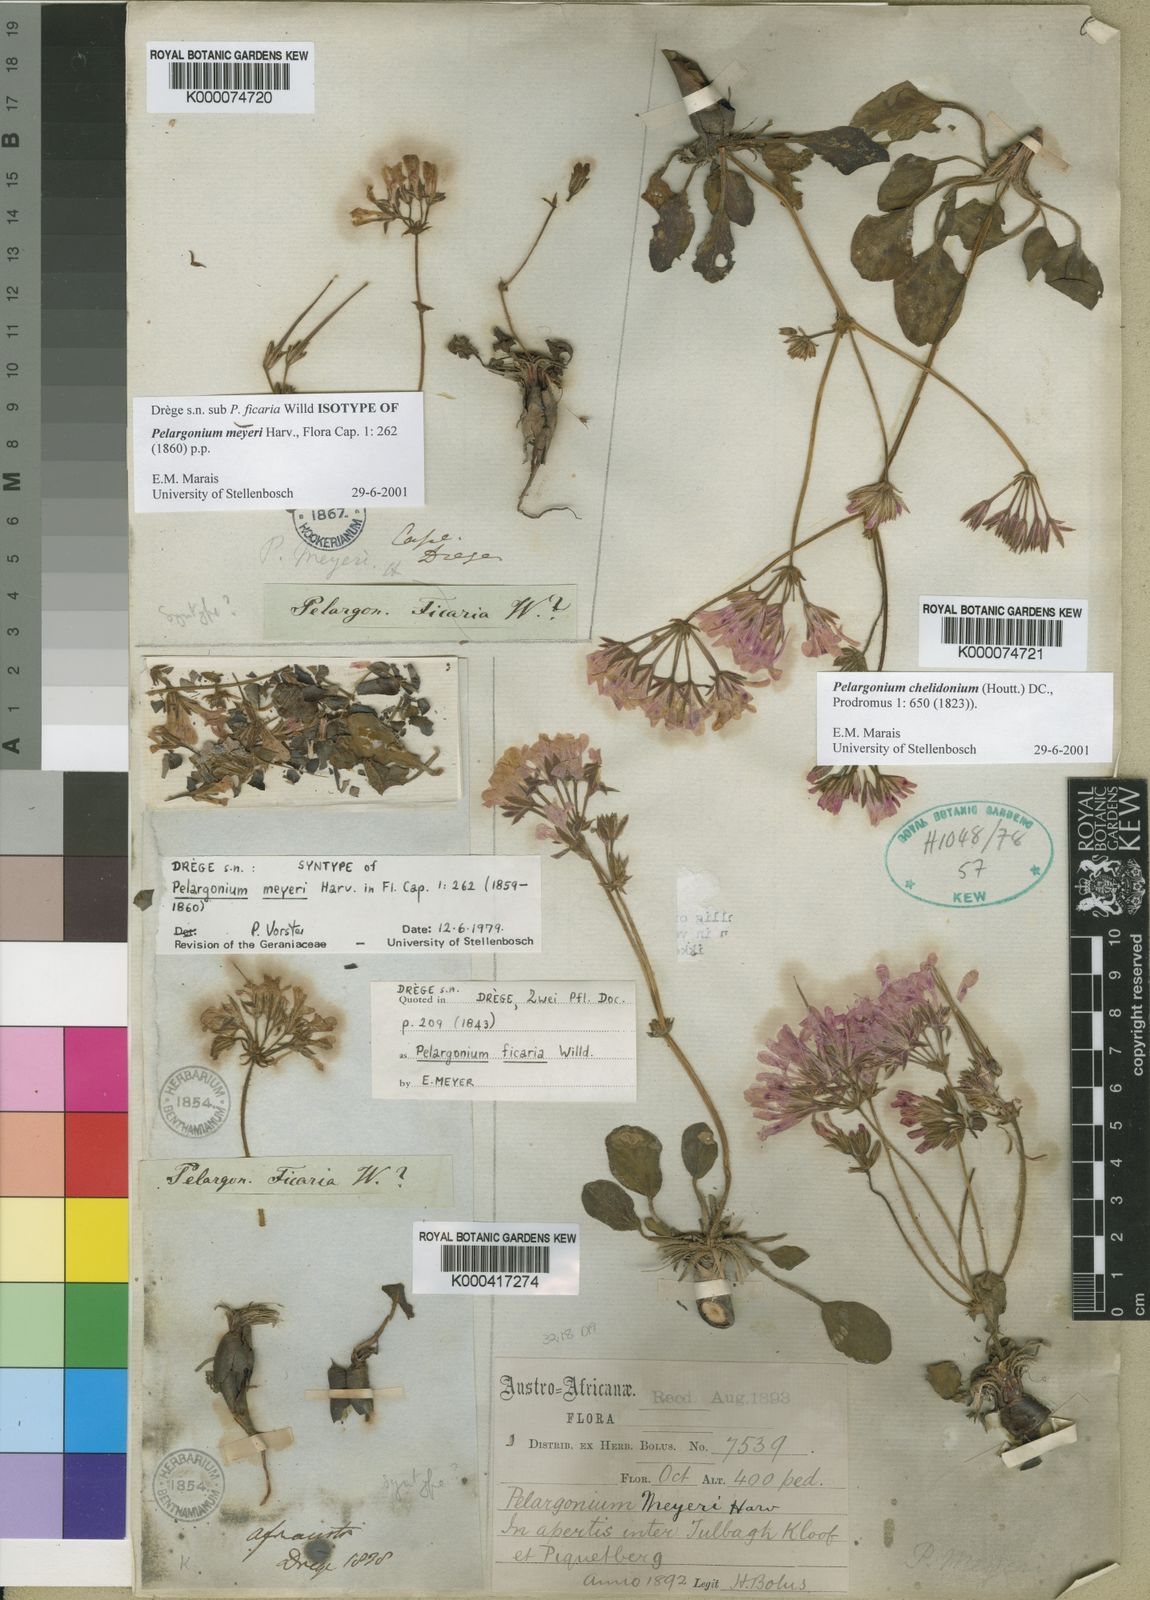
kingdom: Plantae
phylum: Tracheophyta
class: Magnoliopsida
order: Geraniales
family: Geraniaceae
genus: Pelargonium
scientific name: Pelargonium chelidonium
